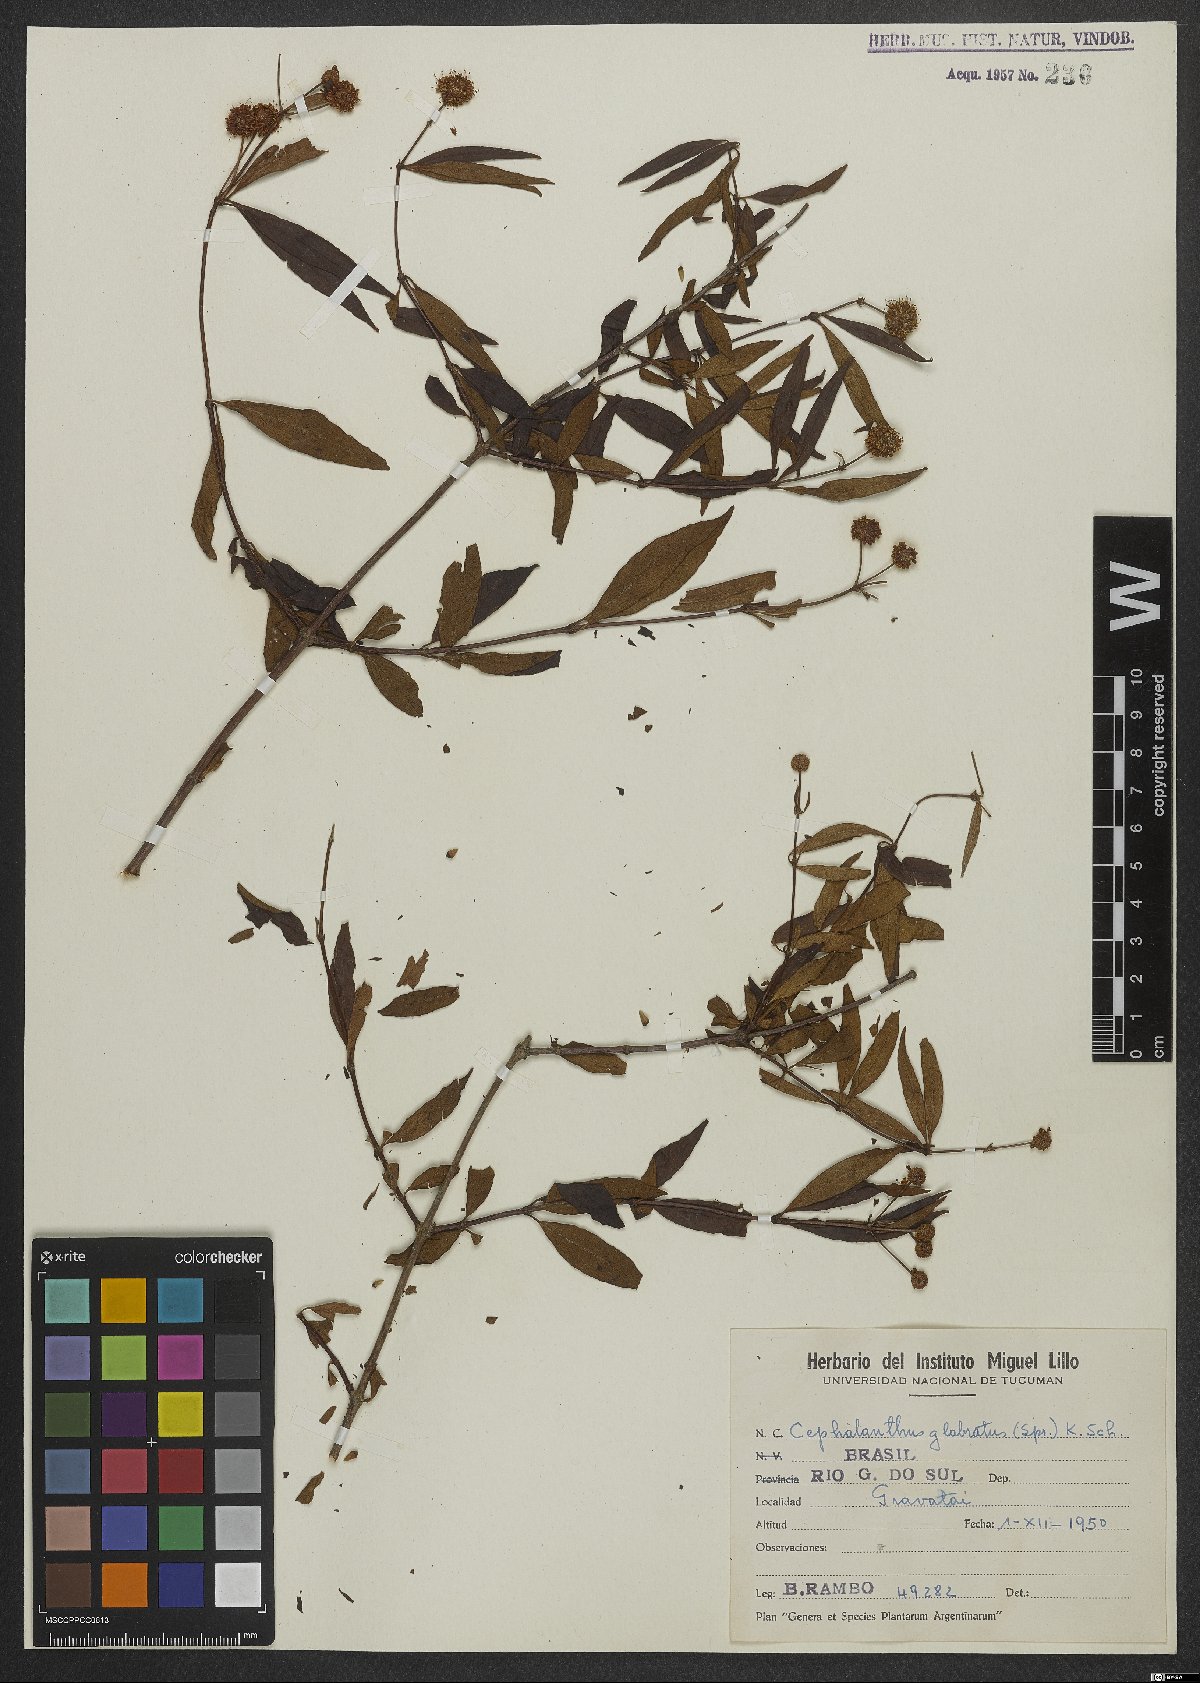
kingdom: Plantae
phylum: Tracheophyta
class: Magnoliopsida
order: Gentianales
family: Rubiaceae
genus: Cephalanthus
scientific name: Cephalanthus glabratus
